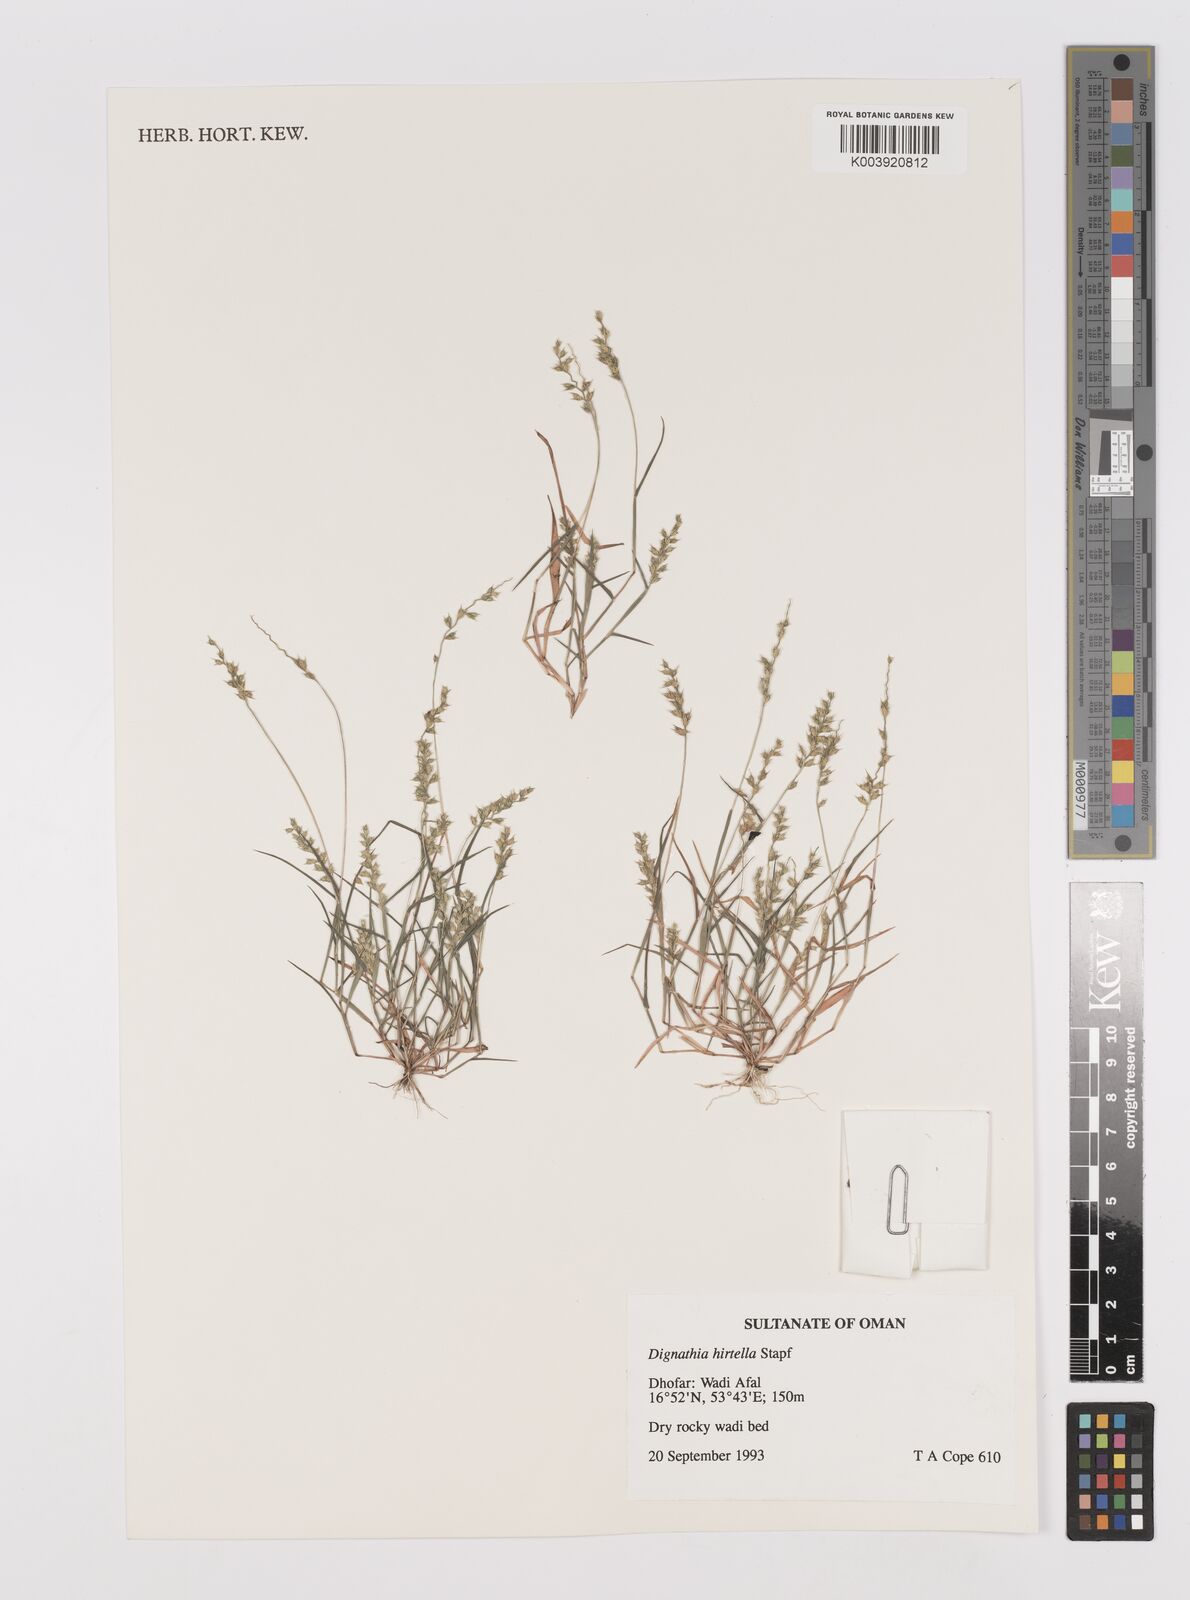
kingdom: Plantae
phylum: Tracheophyta
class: Liliopsida
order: Poales
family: Poaceae
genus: Dignathia
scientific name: Dignathia hirtella
